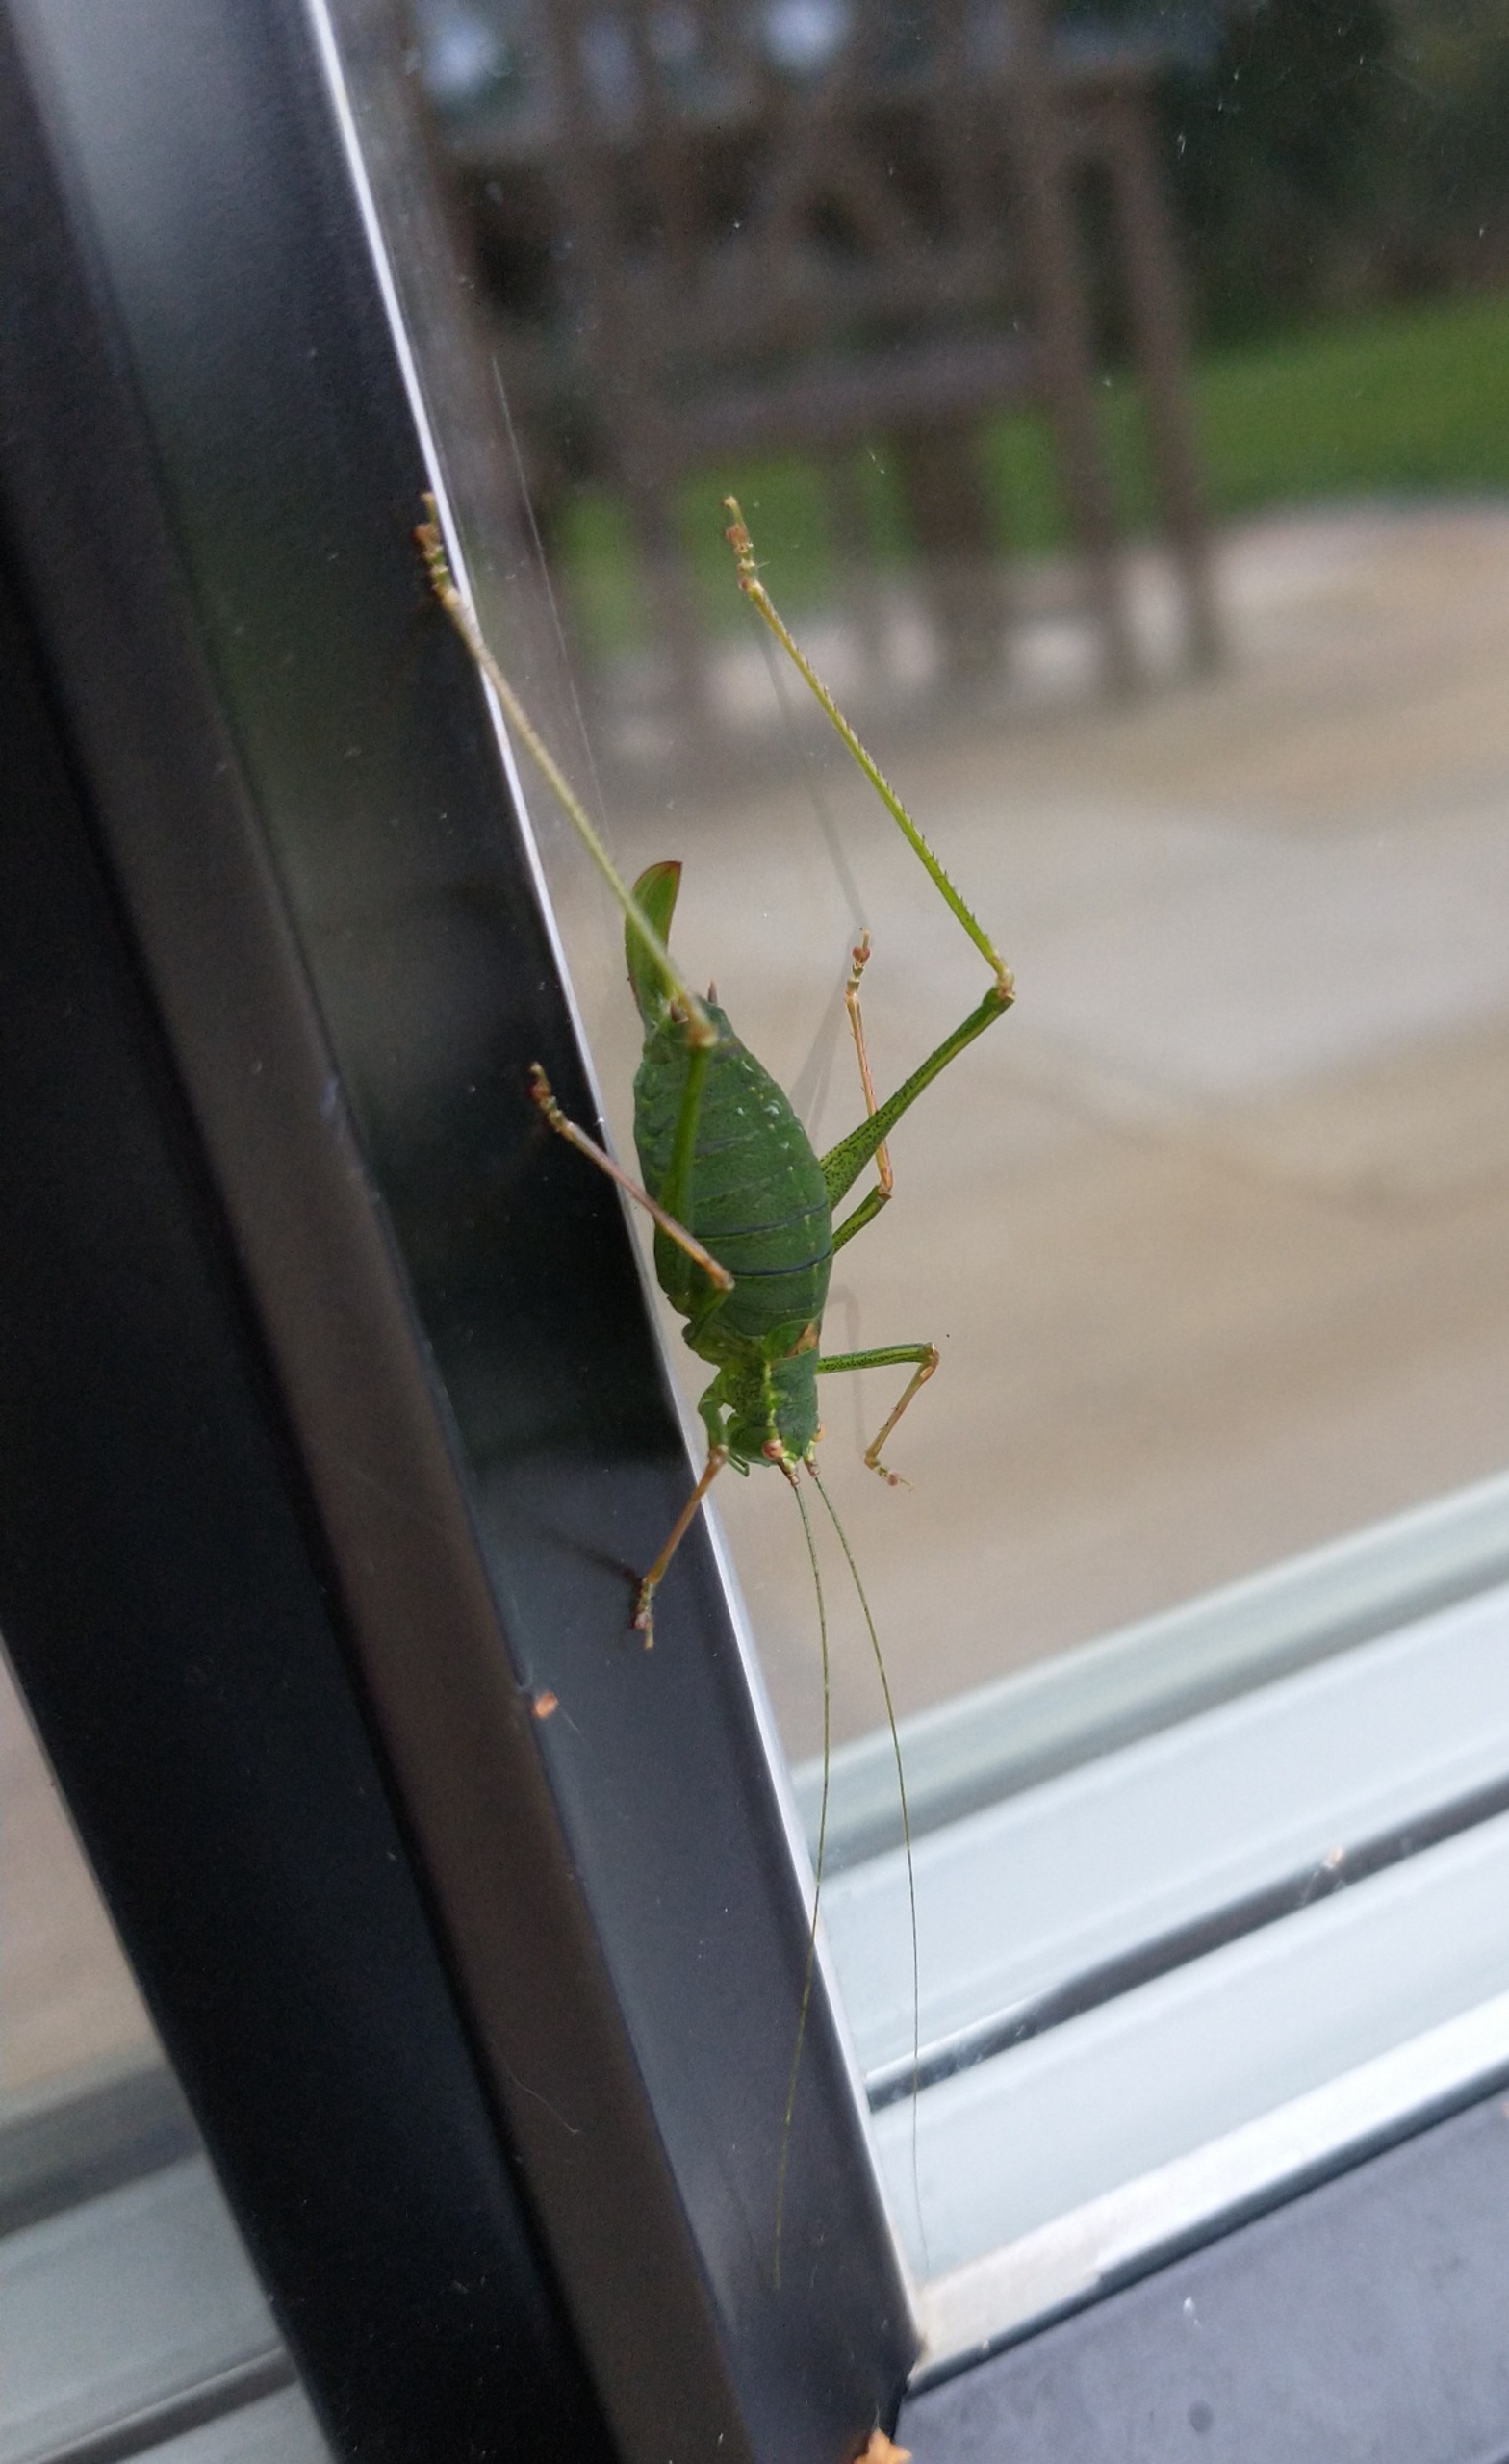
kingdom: Animalia
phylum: Arthropoda
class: Insecta
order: Orthoptera
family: Tettigoniidae
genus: Leptophyes
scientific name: Leptophyes punctatissima
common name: Krumknivgræshoppe
